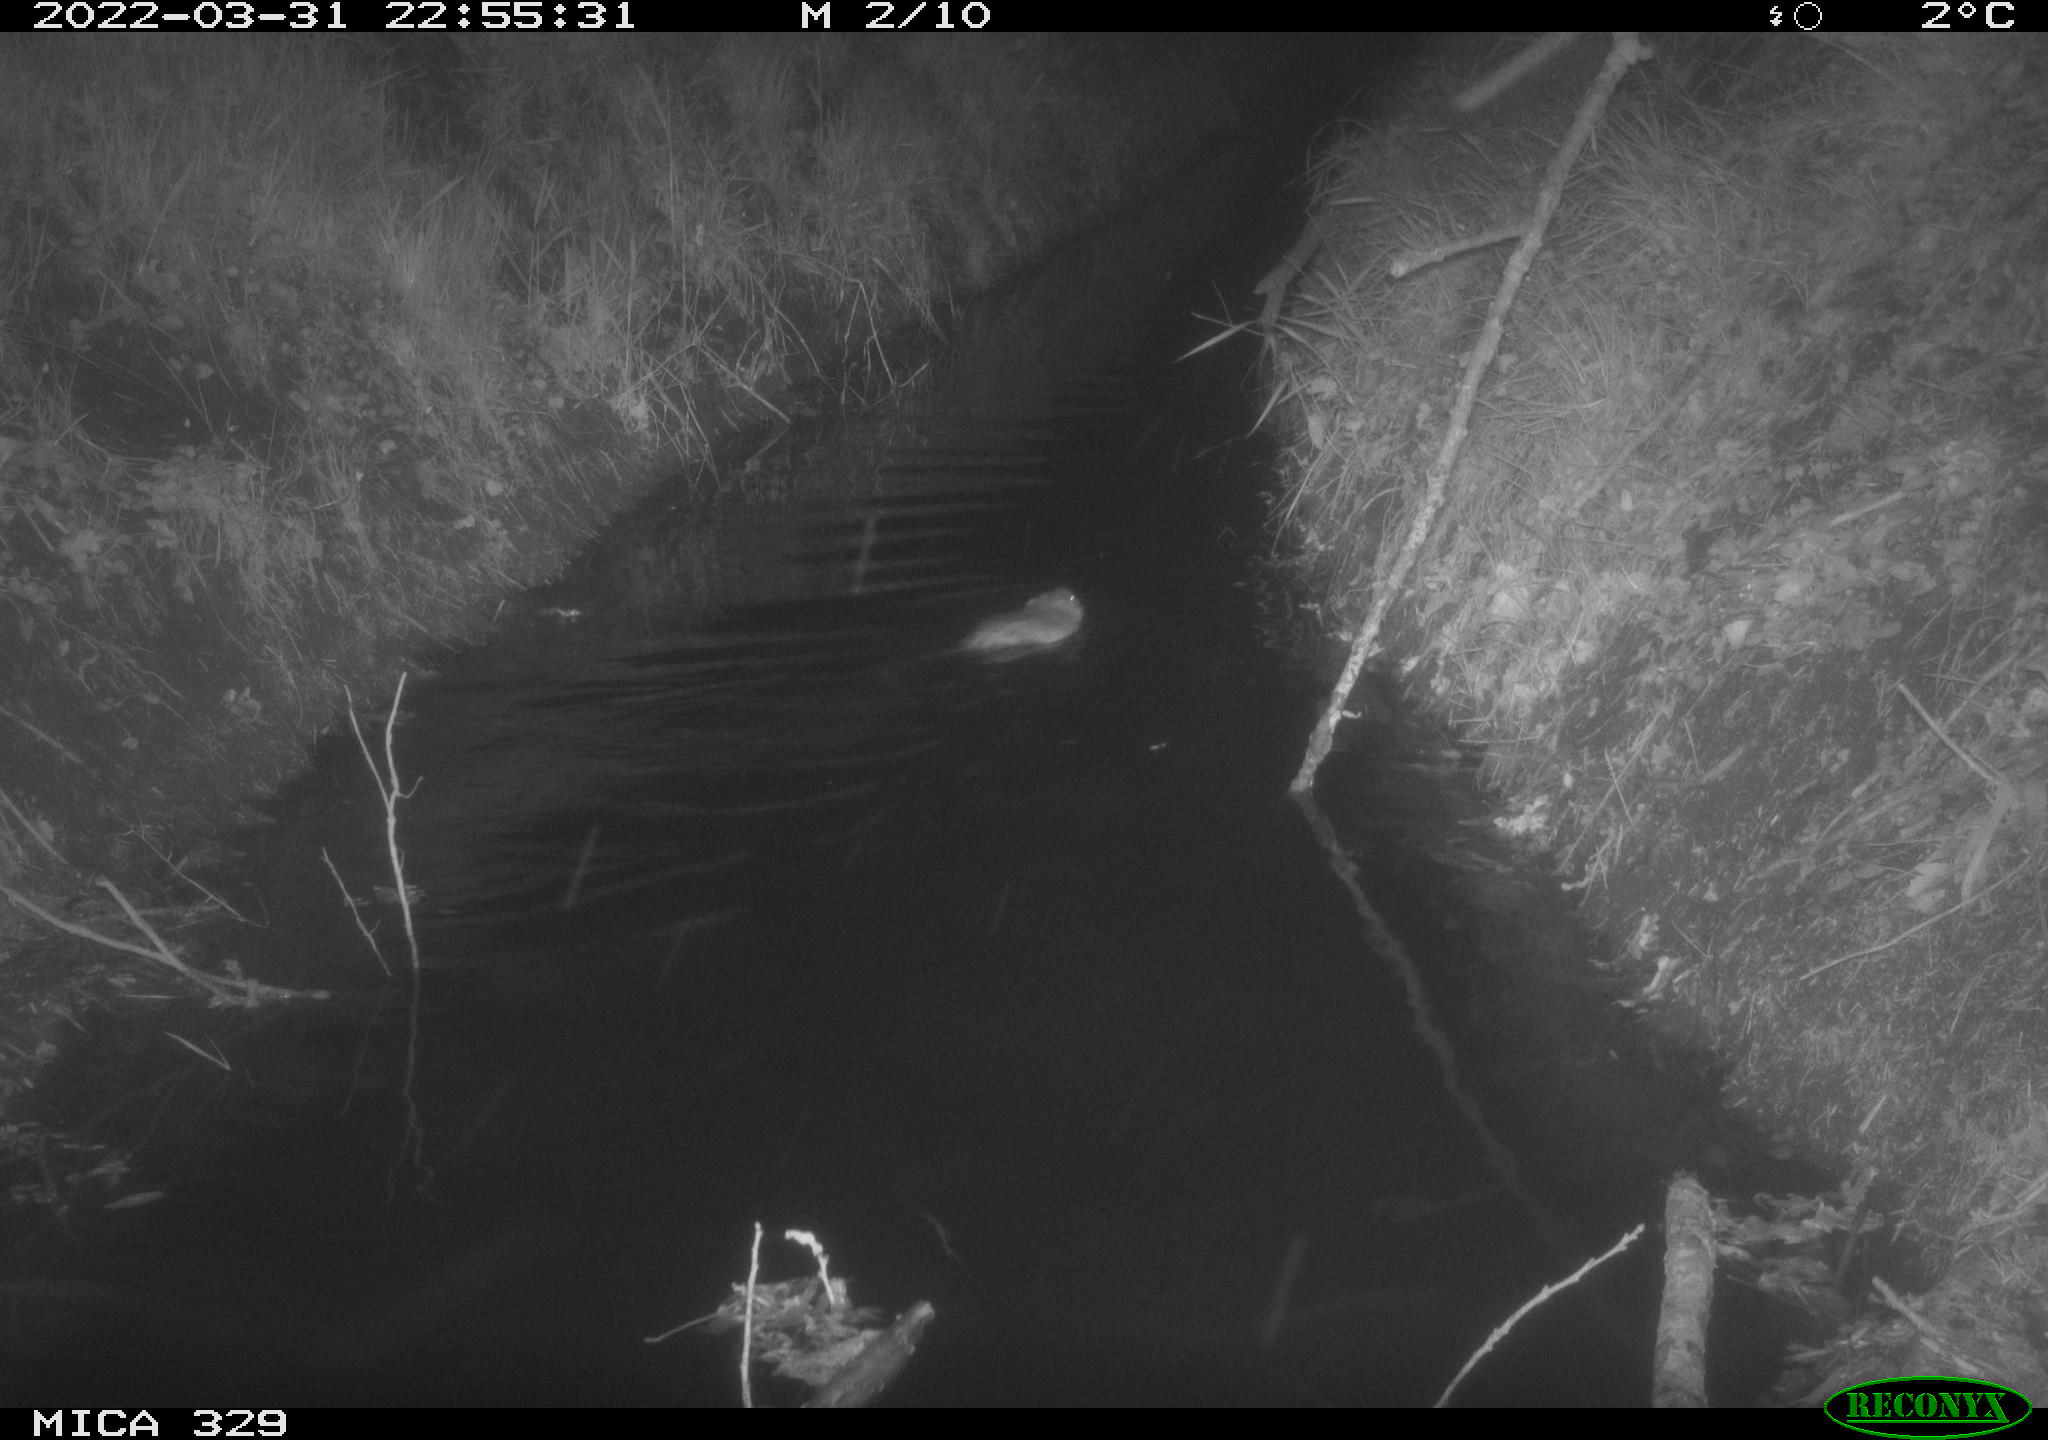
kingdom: Animalia
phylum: Chordata
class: Mammalia
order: Rodentia
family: Cricetidae
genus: Ondatra
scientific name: Ondatra zibethicus
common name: Muskrat
